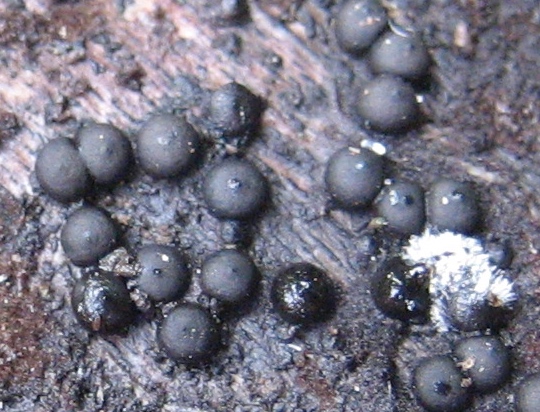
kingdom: Fungi
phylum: Ascomycota
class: Sordariomycetes
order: Xylariales
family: Xylariaceae
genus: Rosellinia
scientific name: Rosellinia
